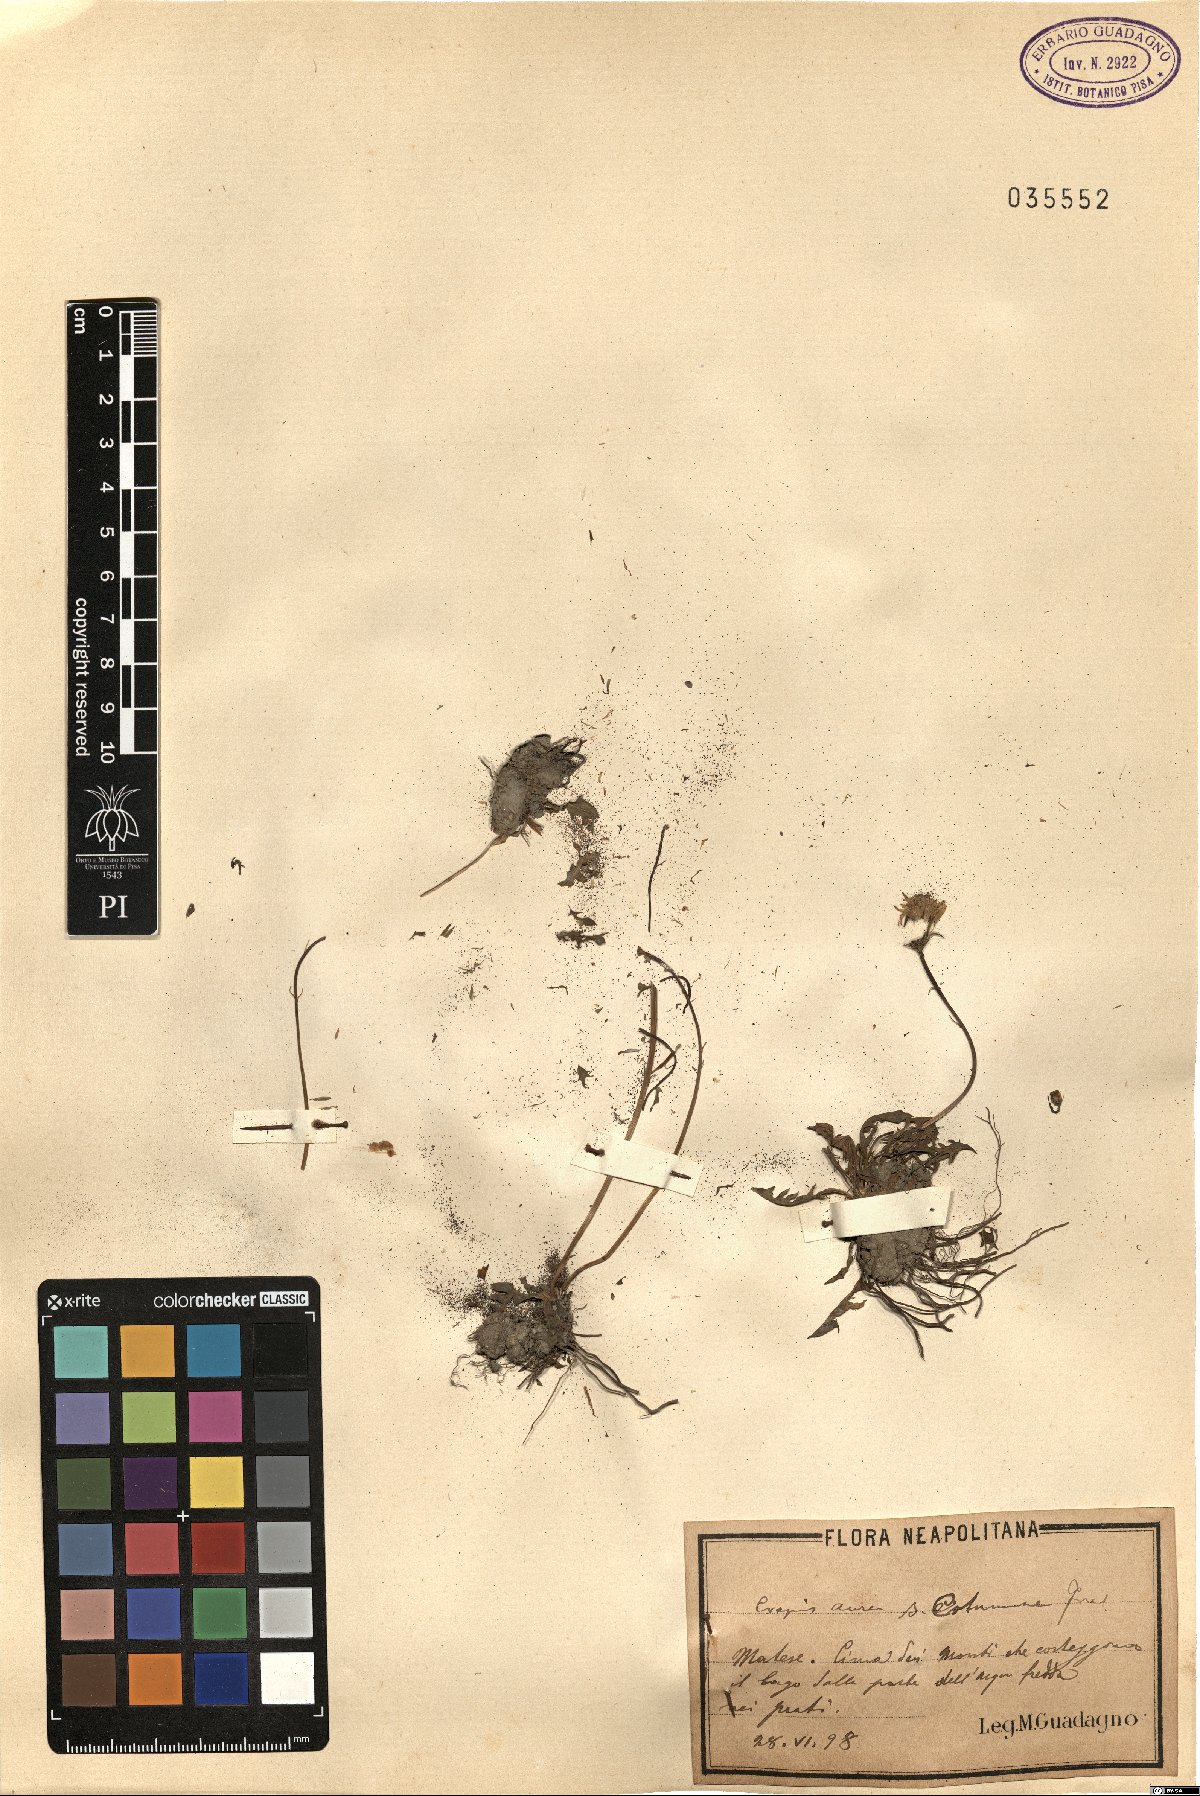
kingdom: Plantae
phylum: Tracheophyta
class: Magnoliopsida
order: Asterales
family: Asteraceae
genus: Crepis
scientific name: Crepis aurea
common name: Golden hawk's-beard
